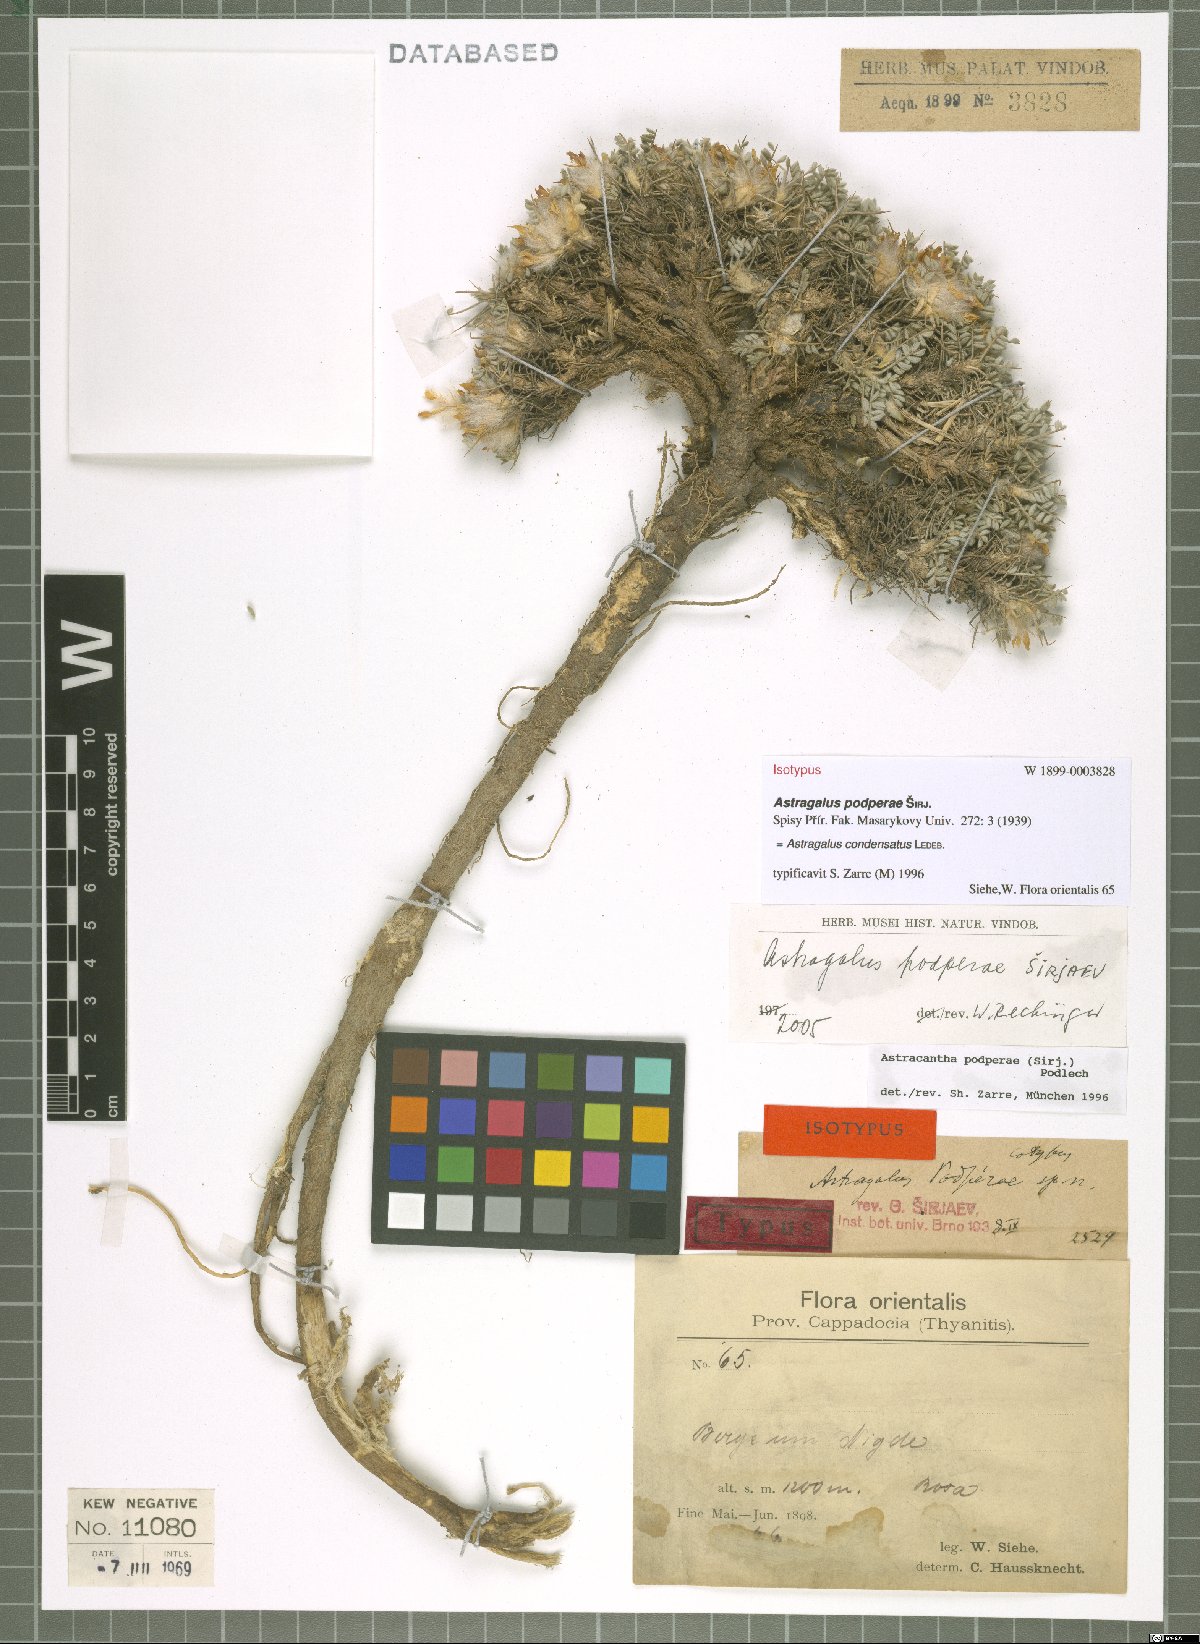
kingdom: Plantae
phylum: Tracheophyta
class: Magnoliopsida
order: Fabales
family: Fabaceae
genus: Astragalus
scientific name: Astragalus condensatus
